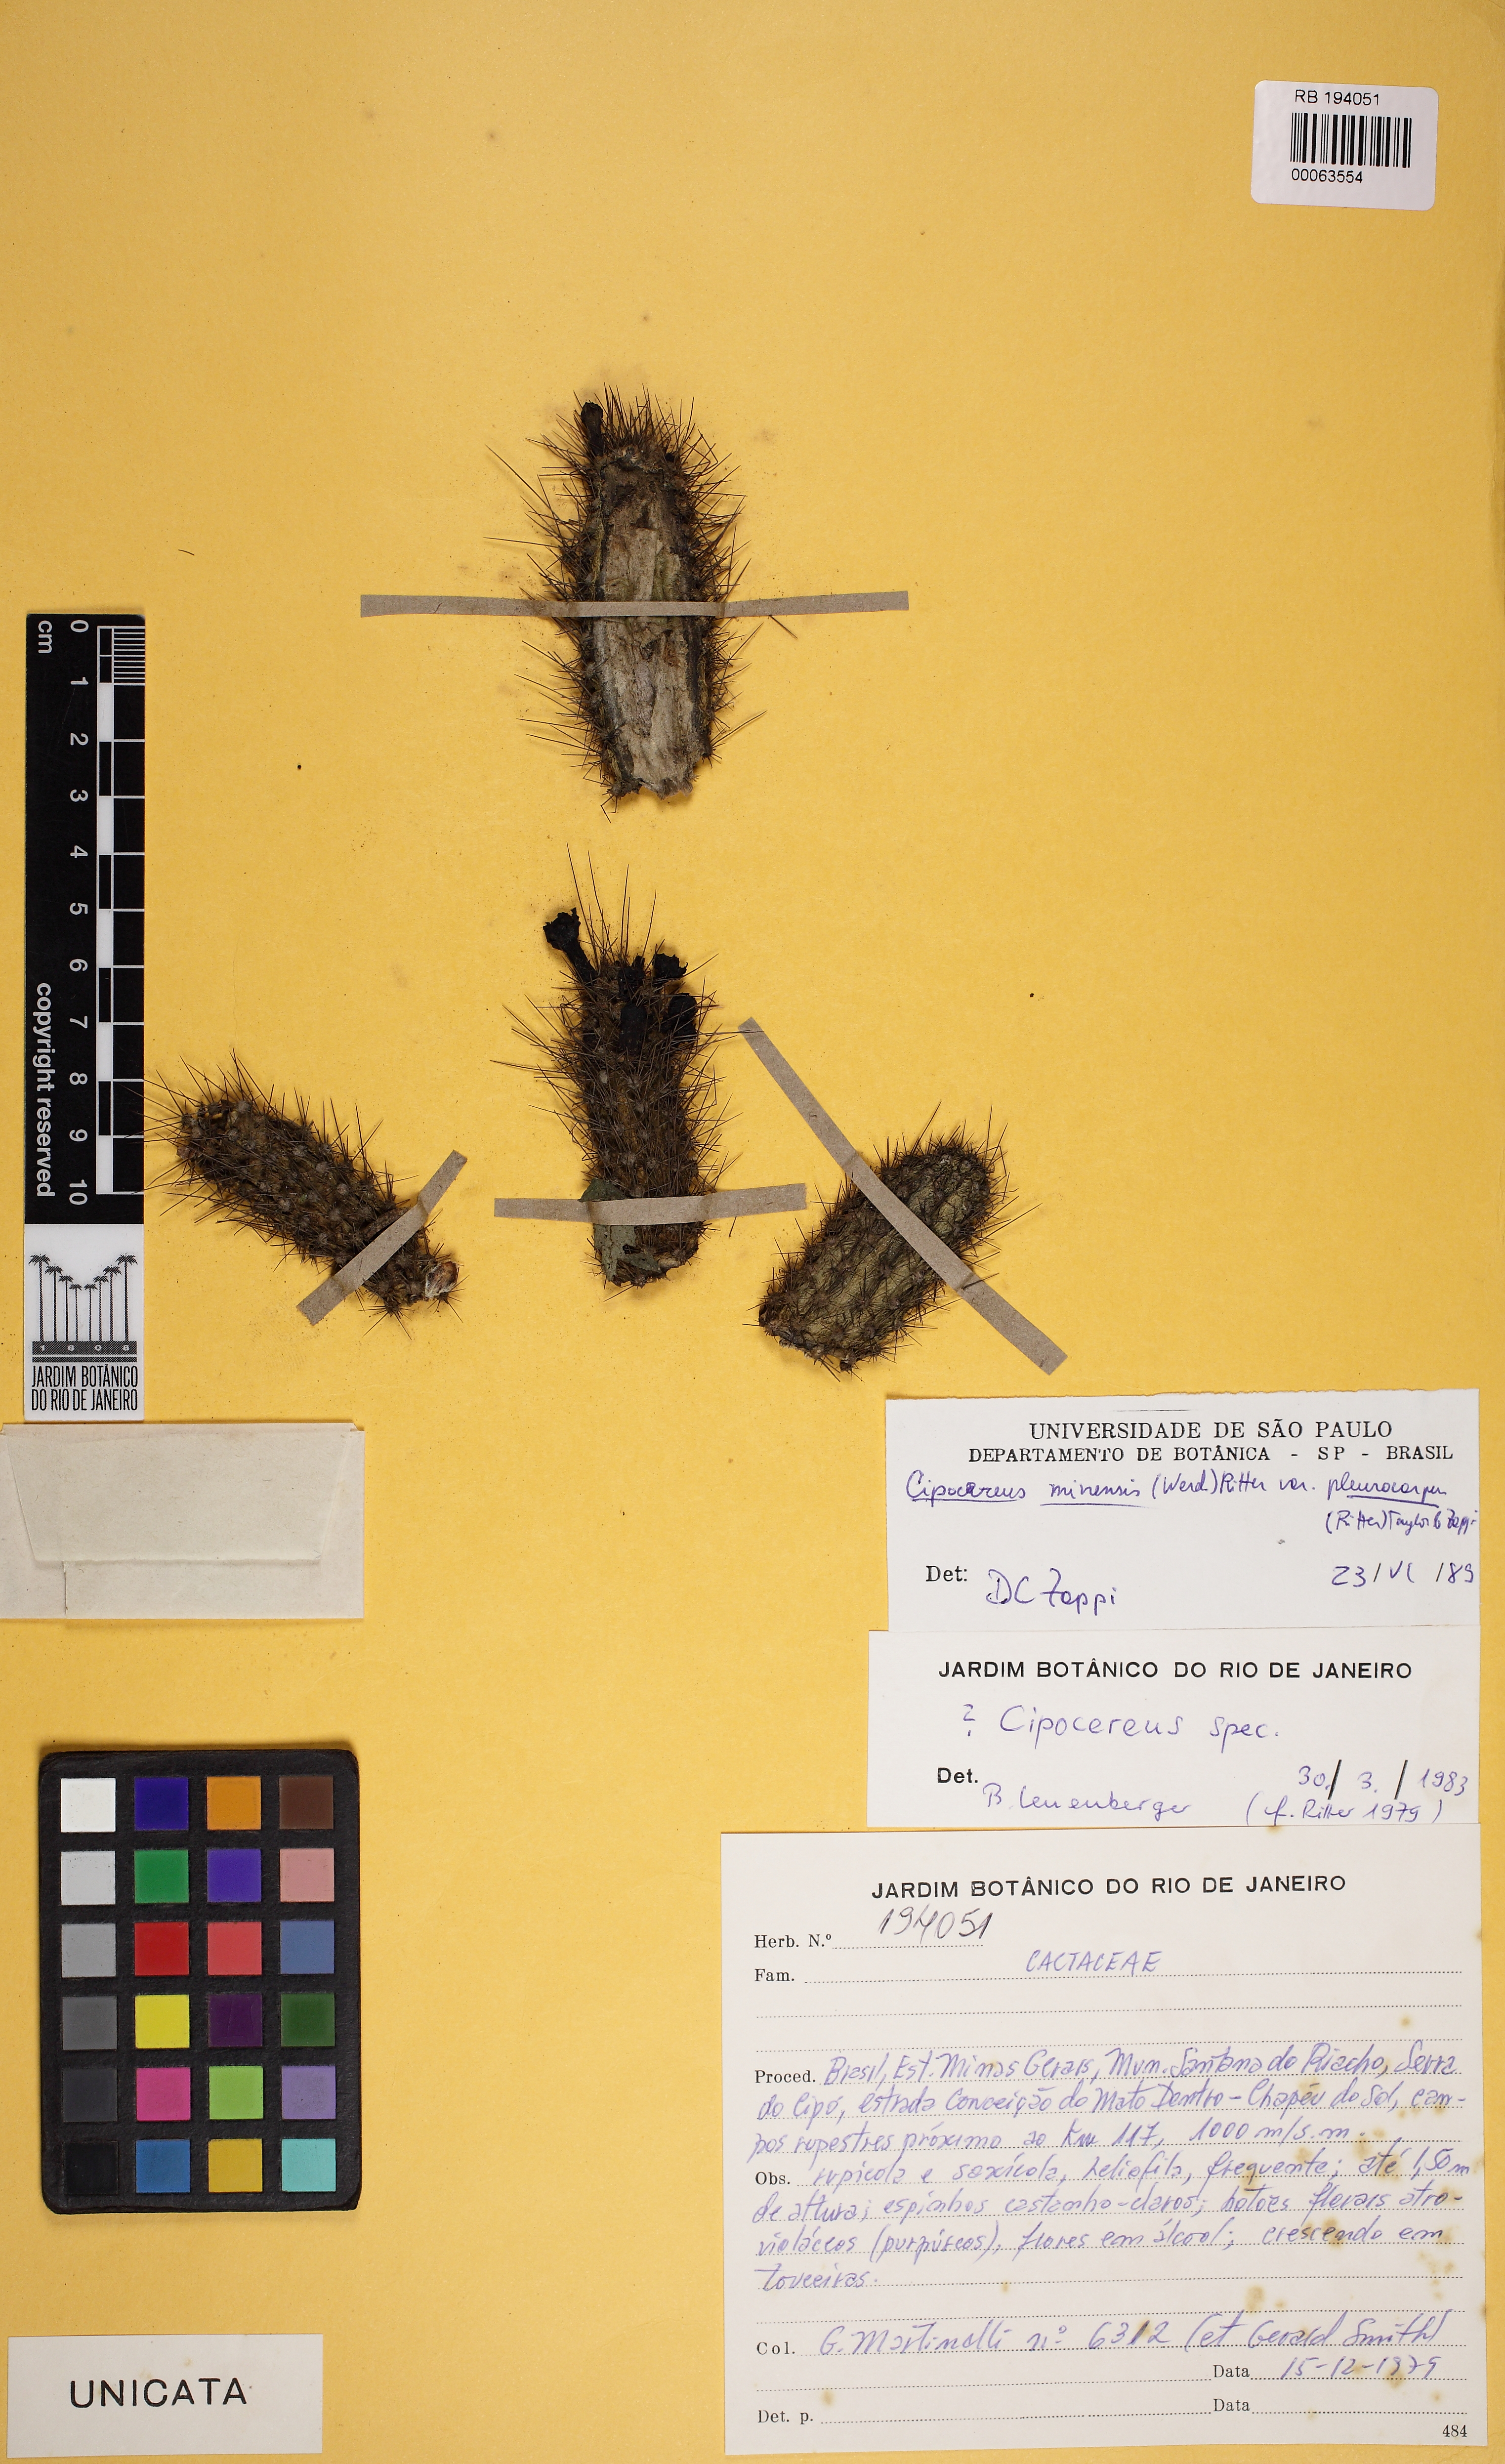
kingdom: Plantae
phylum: Tracheophyta
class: Magnoliopsida
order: Caryophyllales
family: Cactaceae
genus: Cipocereus
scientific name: Cipocereus minensis
